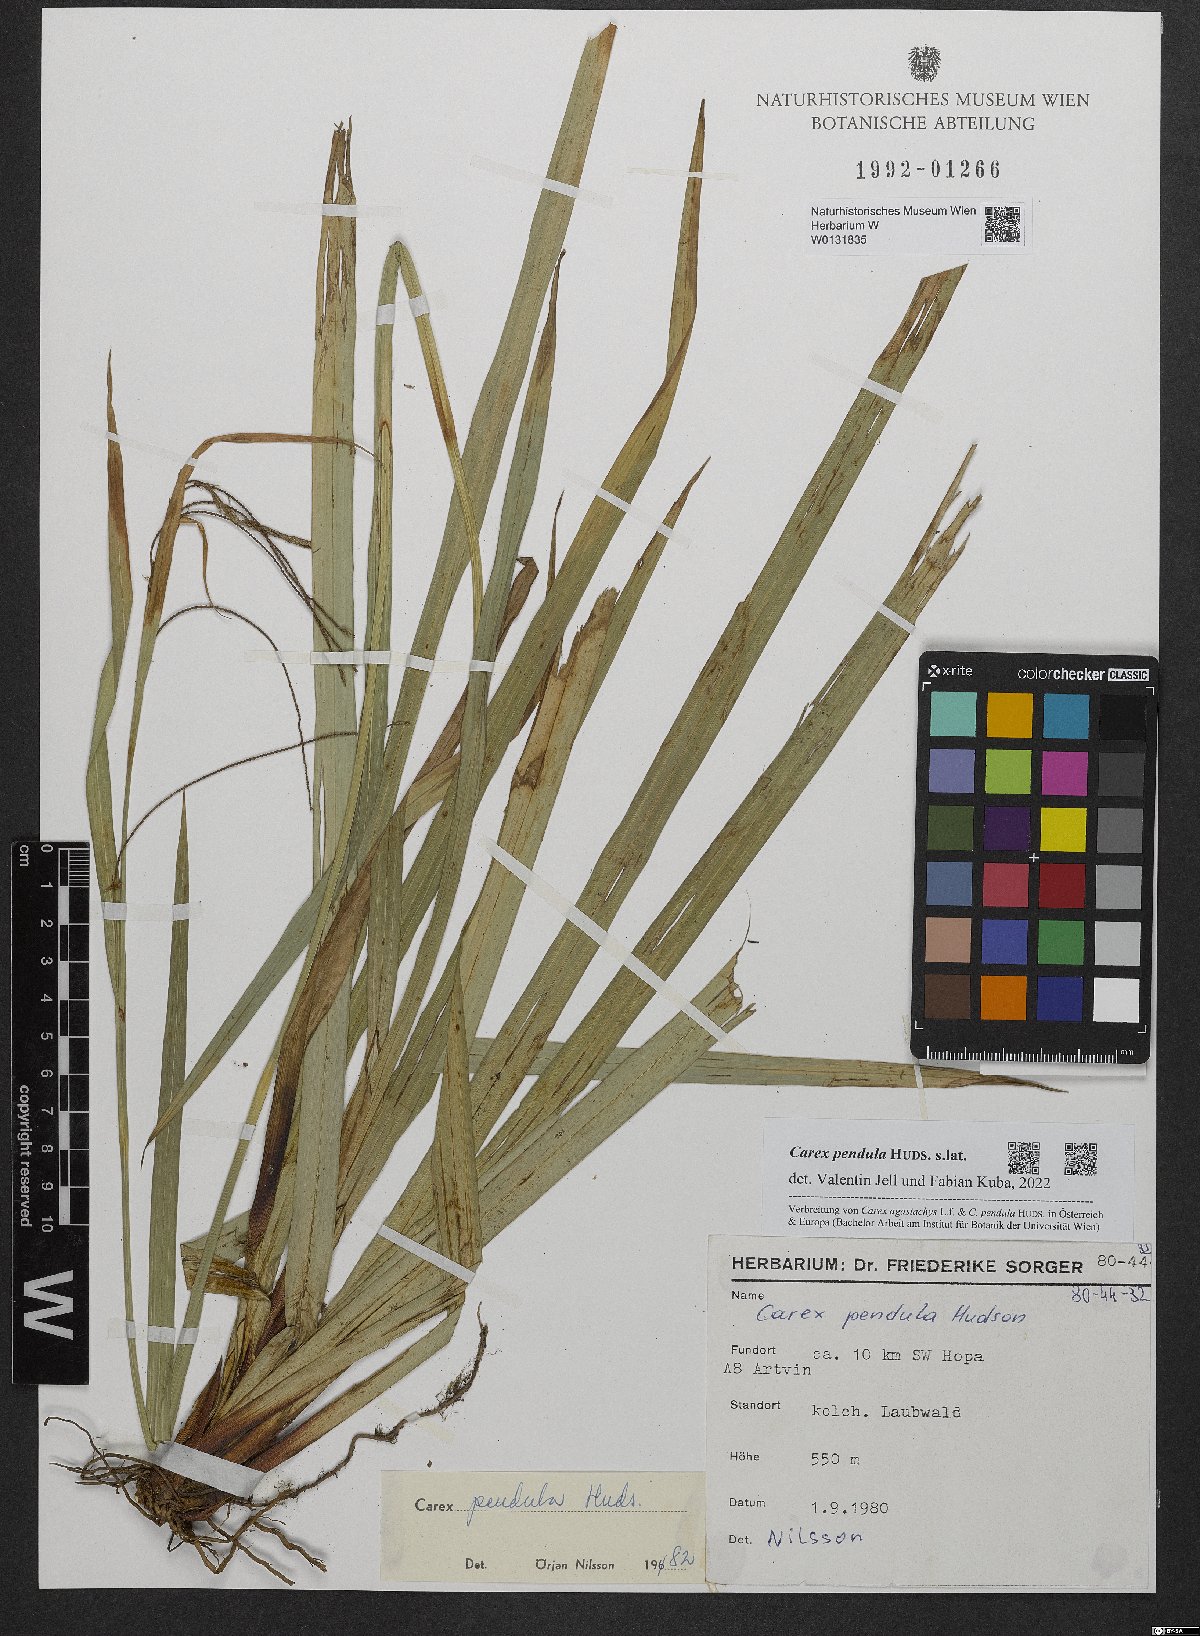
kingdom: Plantae
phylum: Tracheophyta
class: Liliopsida
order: Poales
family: Cyperaceae
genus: Carex
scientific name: Carex pendula
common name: Pendulous sedge
